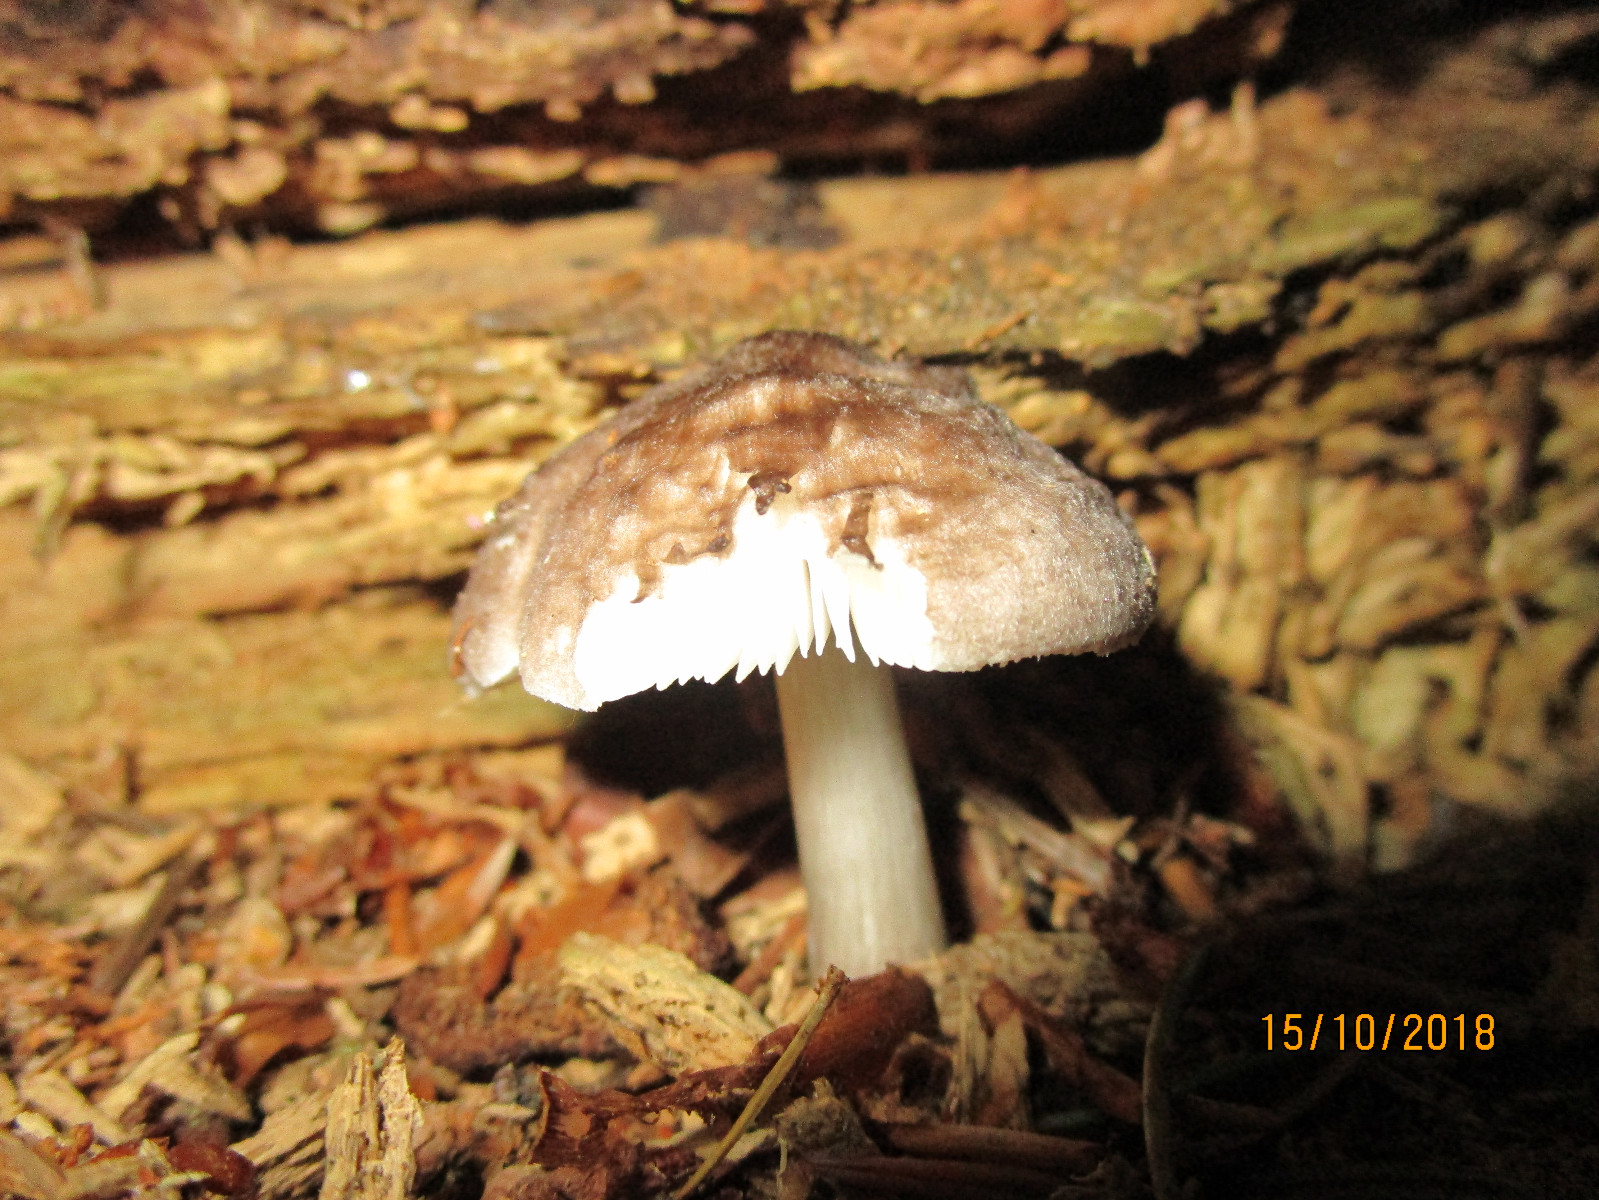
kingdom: Fungi
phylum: Basidiomycota
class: Agaricomycetes
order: Agaricales
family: Pluteaceae
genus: Pluteus
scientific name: Pluteus
